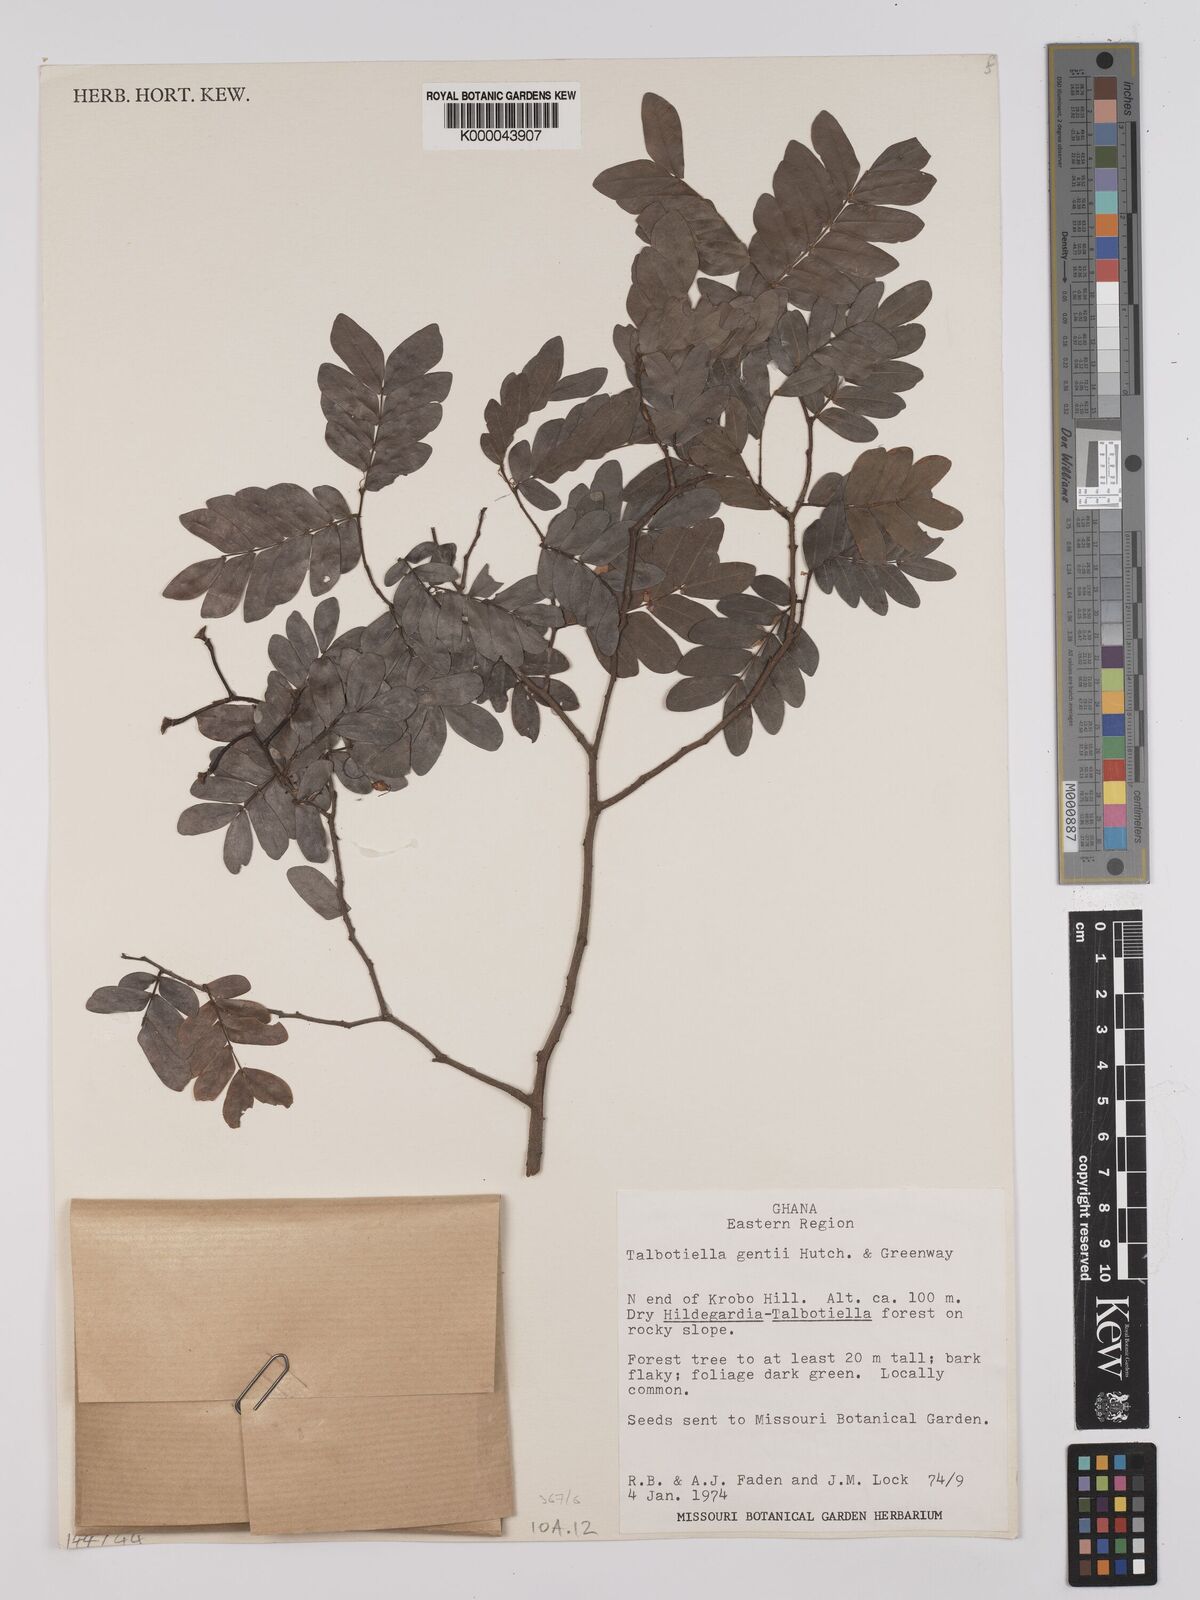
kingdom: Plantae
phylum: Tracheophyta
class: Magnoliopsida
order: Fabales
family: Fabaceae
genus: Talbotiella
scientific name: Talbotiella gentii
